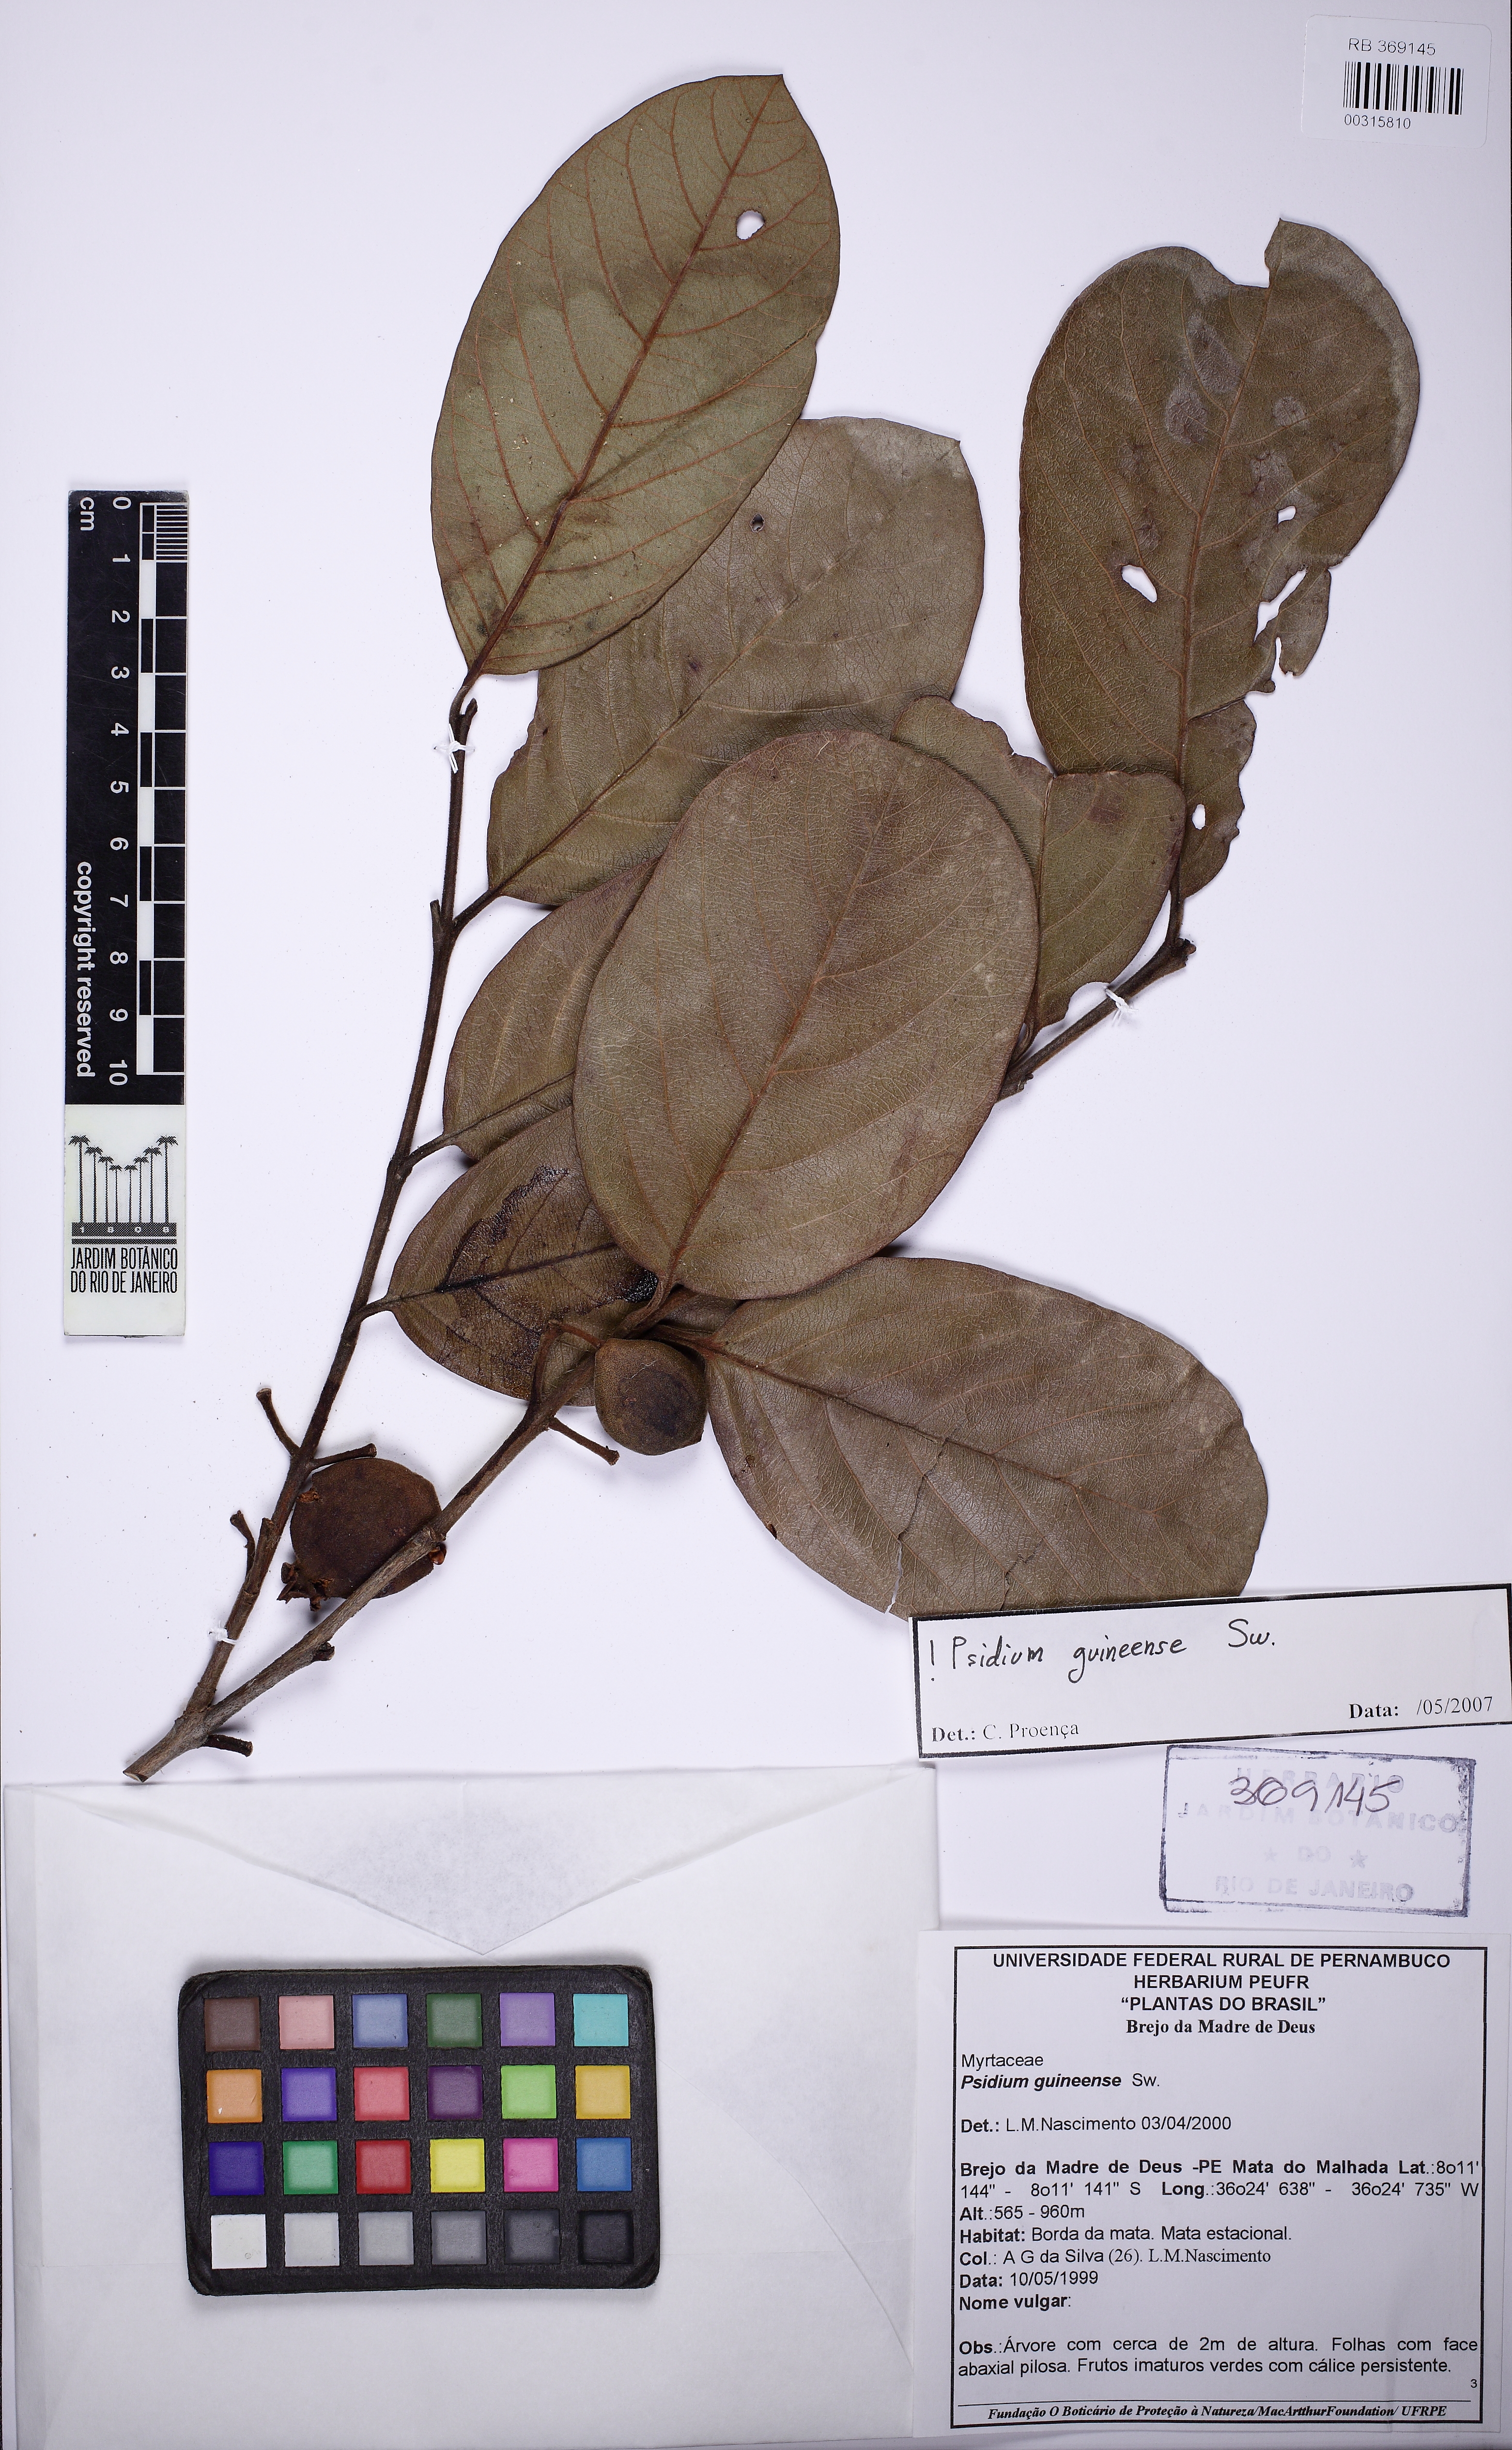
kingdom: Plantae
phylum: Tracheophyta
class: Magnoliopsida
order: Myrtales
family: Myrtaceae
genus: Psidium
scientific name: Psidium guyanense
